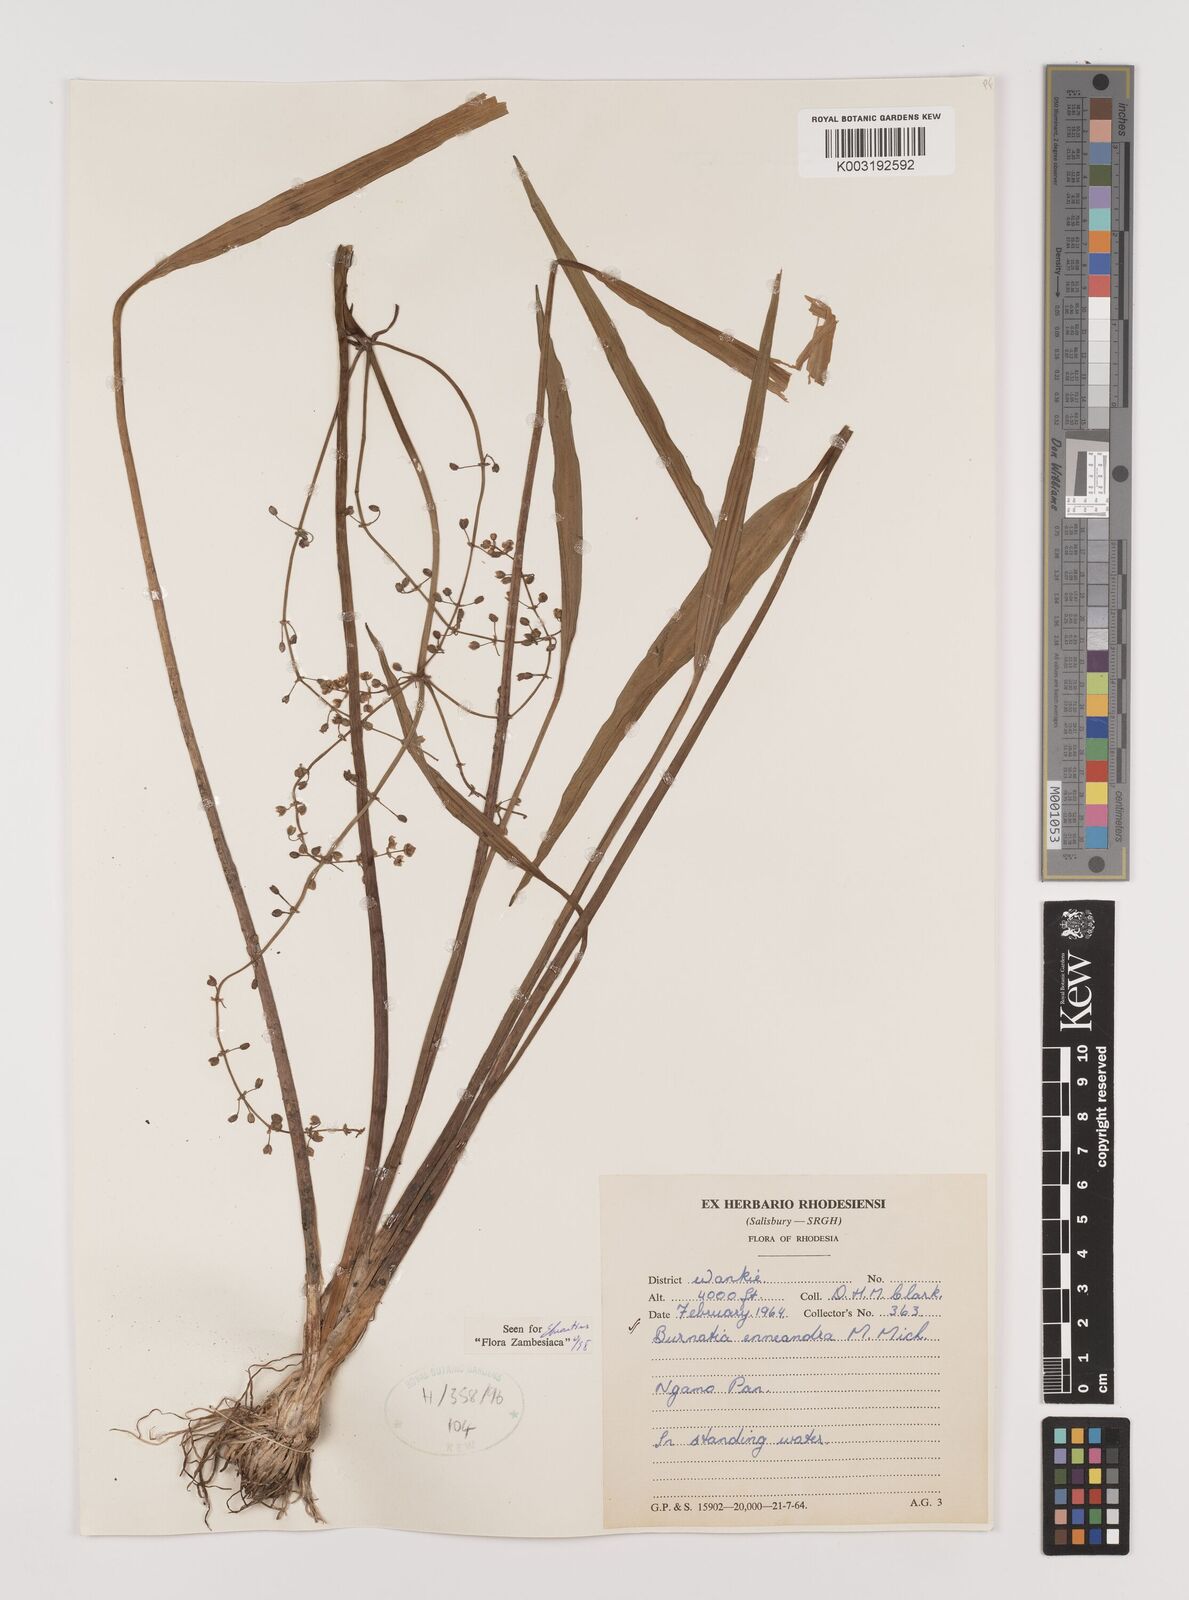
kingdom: Plantae
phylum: Tracheophyta
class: Liliopsida
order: Alismatales
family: Alismataceae
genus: Burnatia
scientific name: Burnatia enneandra
